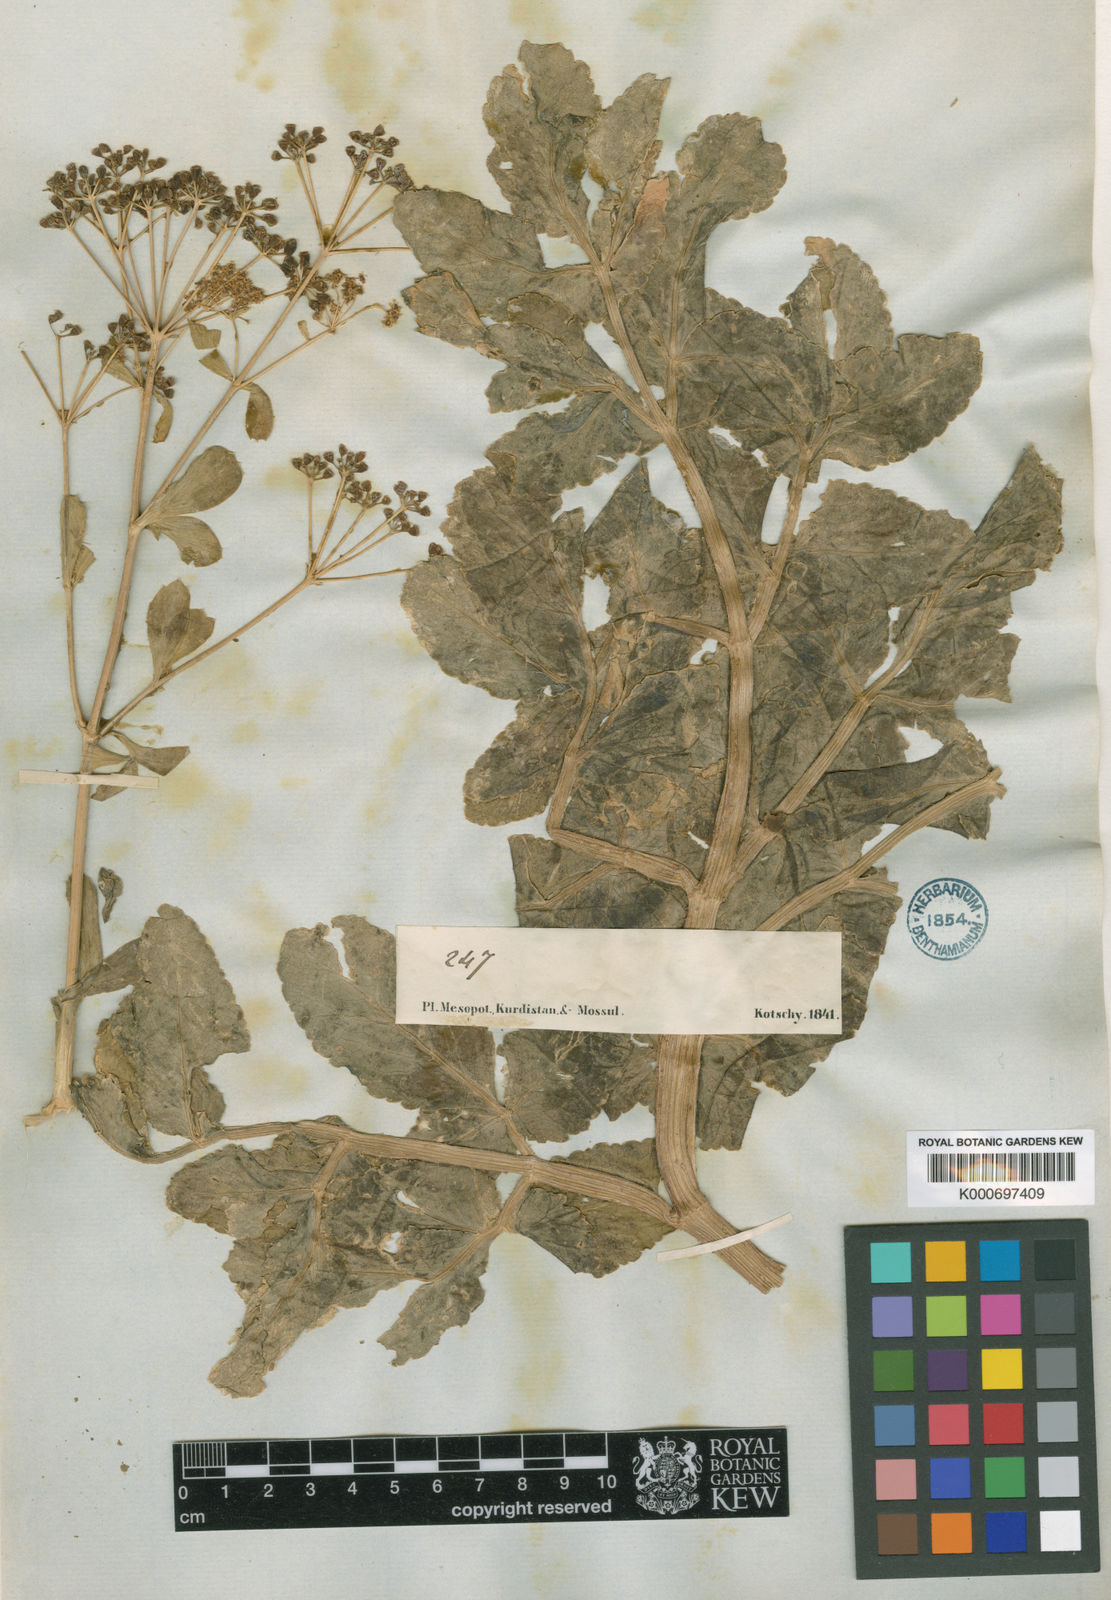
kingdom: Plantae
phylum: Tracheophyta
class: Magnoliopsida
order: Apiales
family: Apiaceae
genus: Petroedmondia
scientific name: Petroedmondia syriaca
